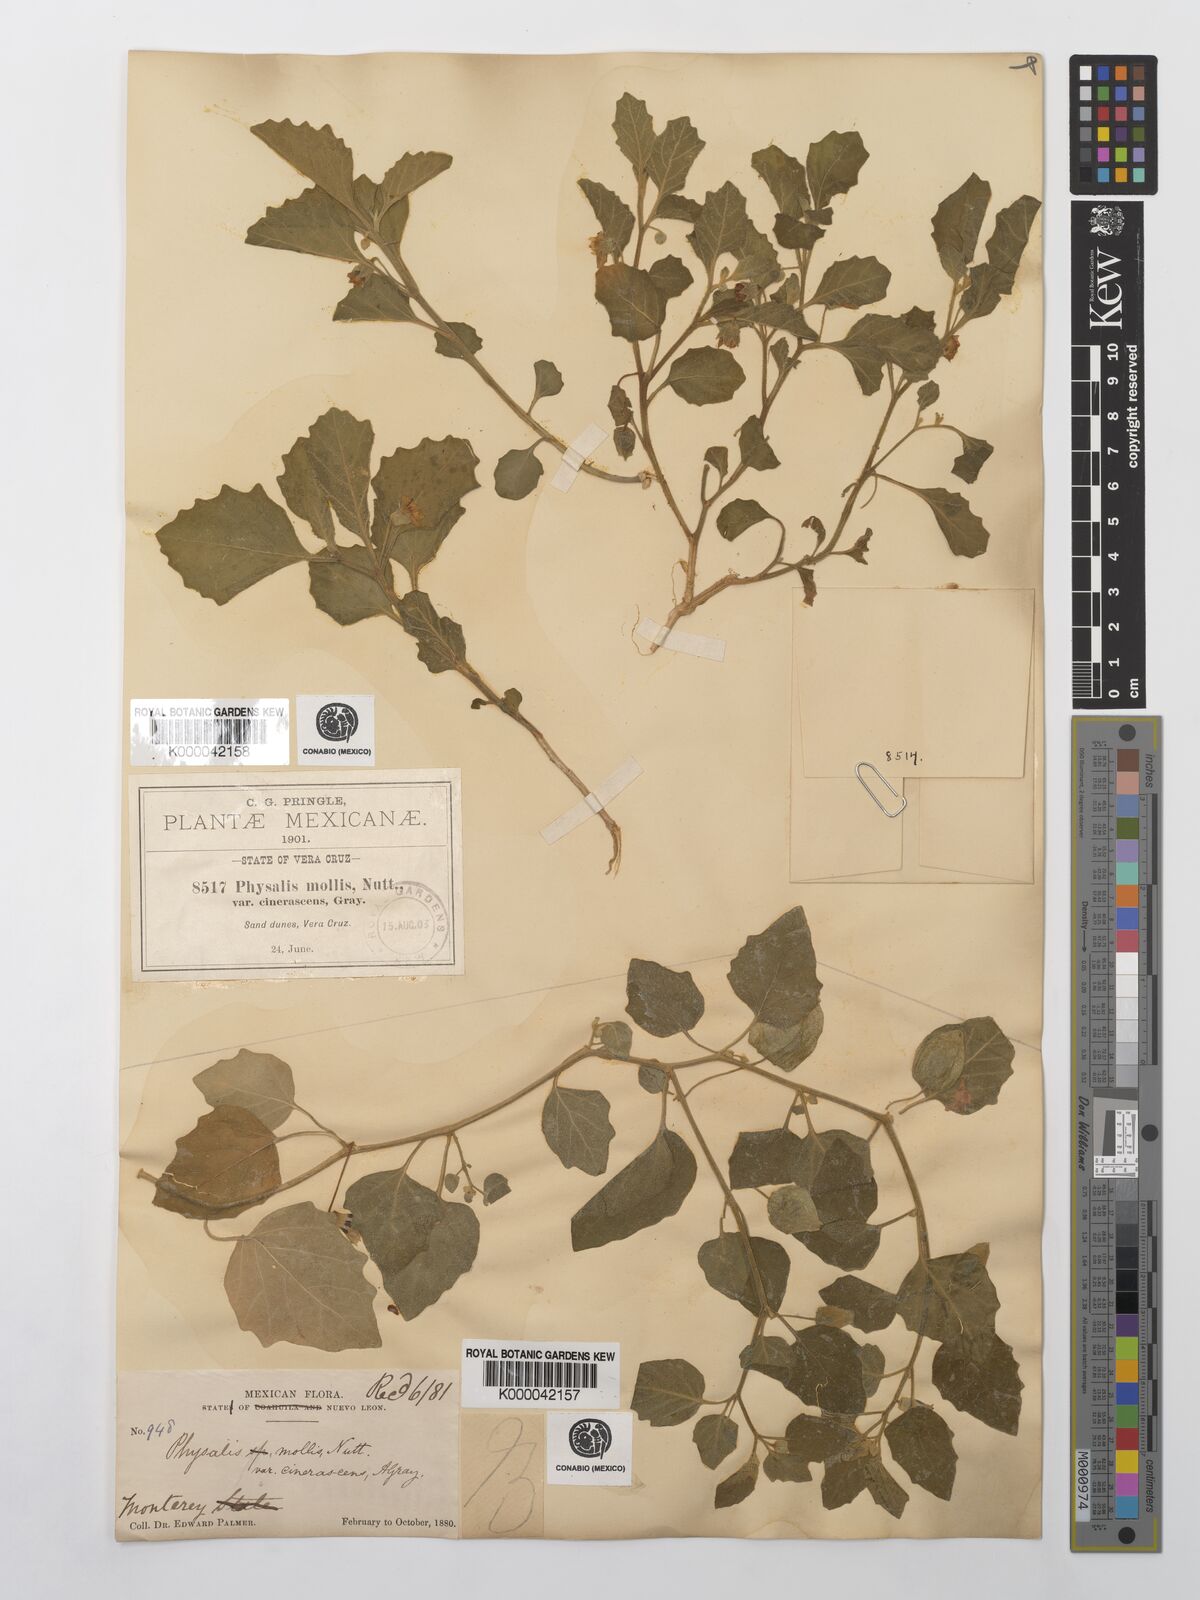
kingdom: Plantae
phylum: Tracheophyta
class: Magnoliopsida
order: Solanales
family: Solanaceae
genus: Physalis
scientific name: Physalis cinerascens
